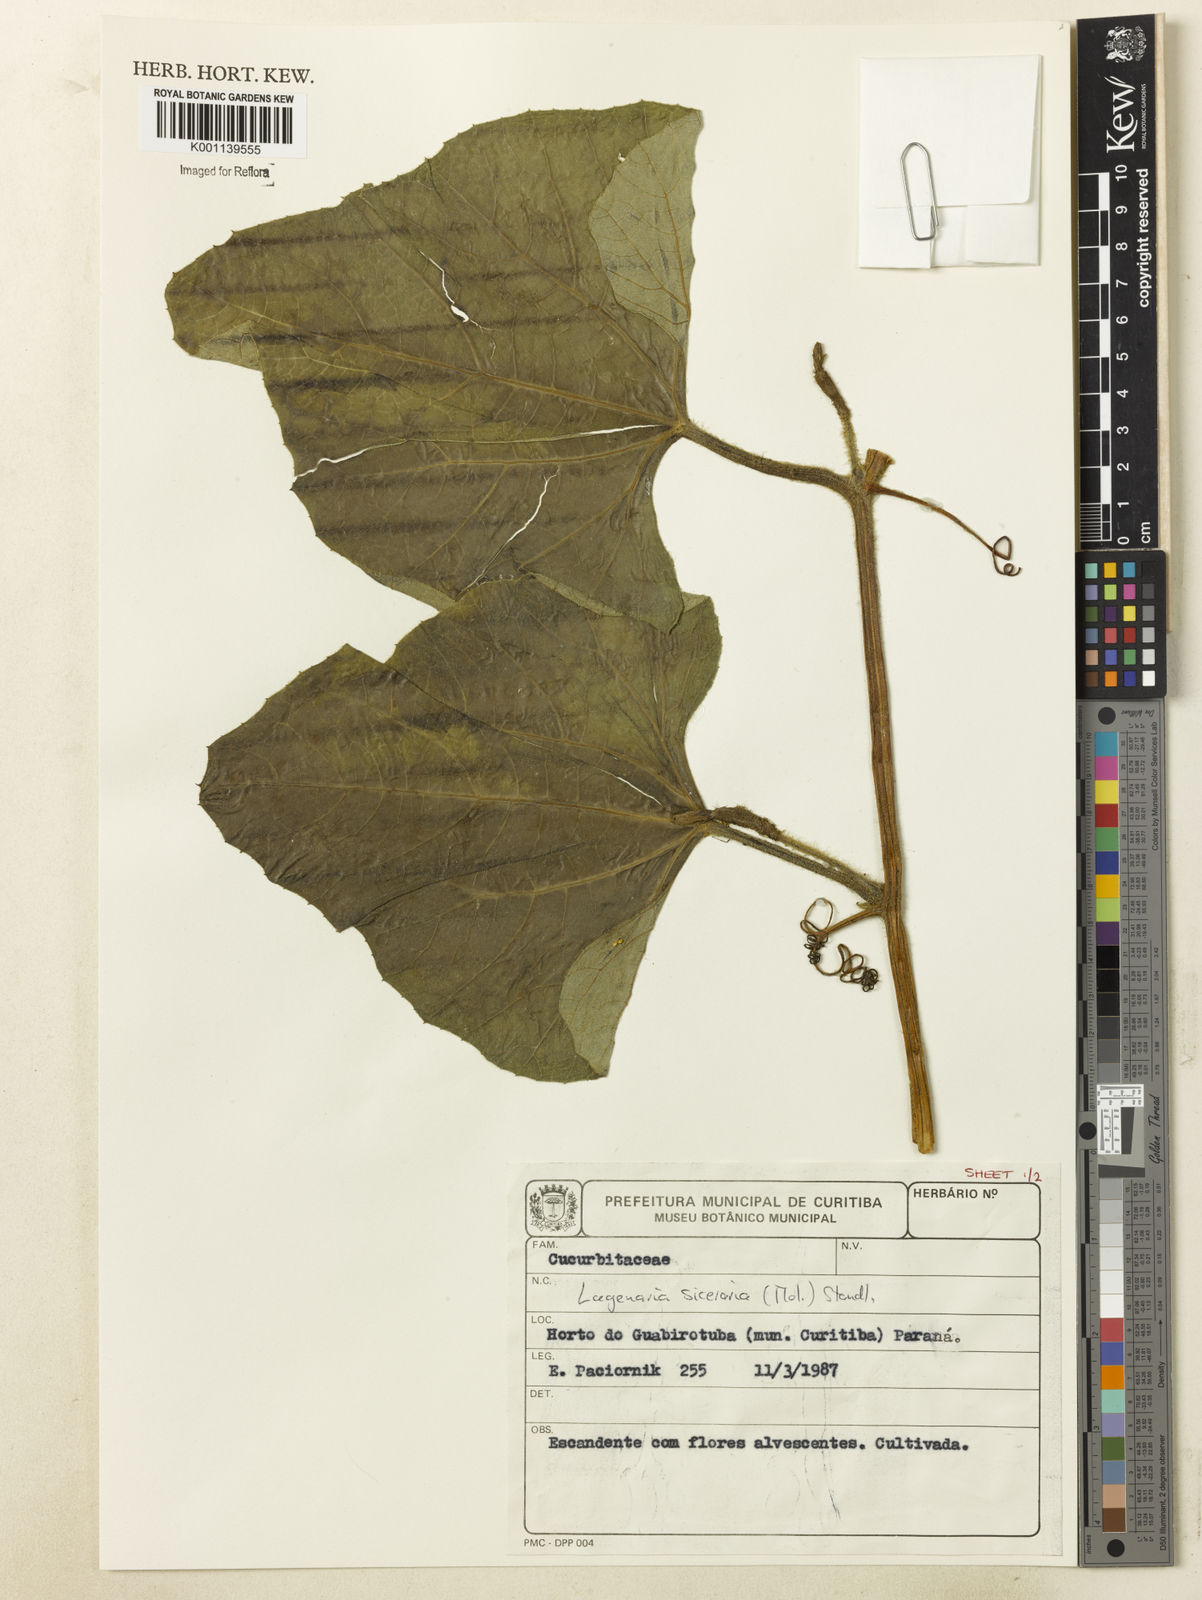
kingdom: Plantae
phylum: Tracheophyta
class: Magnoliopsida
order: Cucurbitales
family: Cucurbitaceae
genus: Lagenaria
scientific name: Lagenaria siceraria
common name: Bottle gourd
